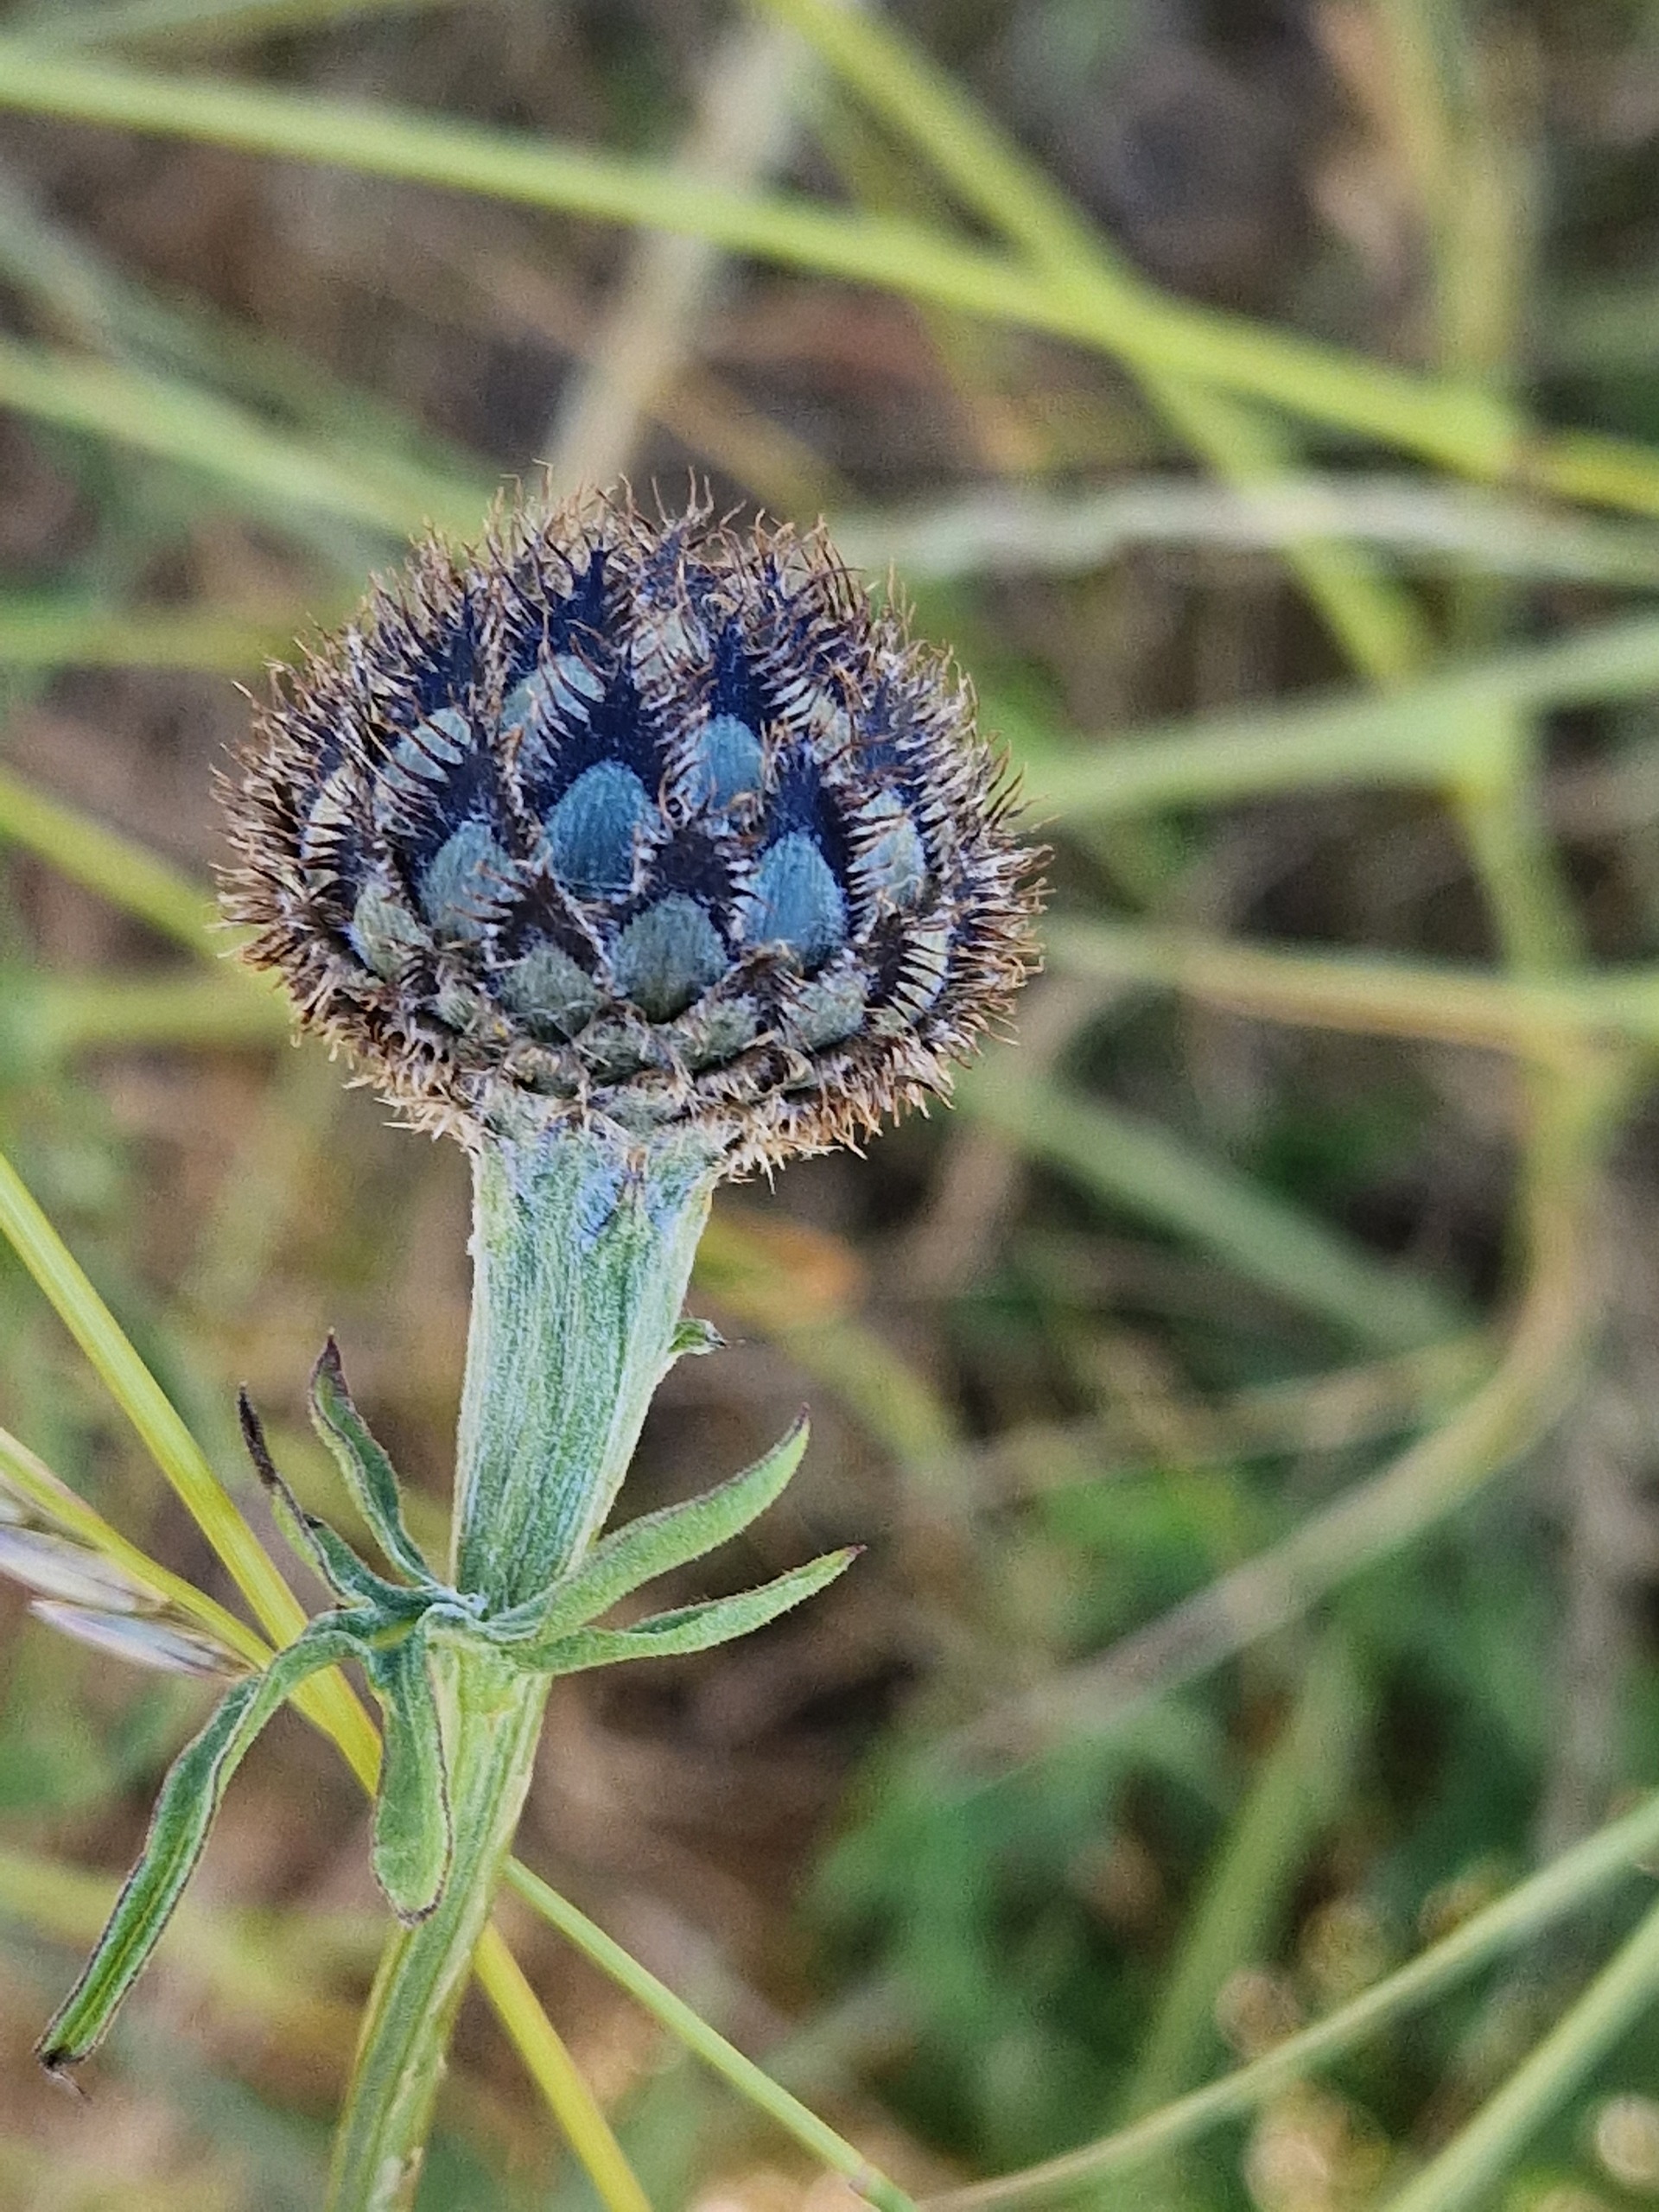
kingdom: Plantae
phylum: Tracheophyta
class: Magnoliopsida
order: Asterales
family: Asteraceae
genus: Centaurea
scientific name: Centaurea scabiosa
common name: Stor knopurt
